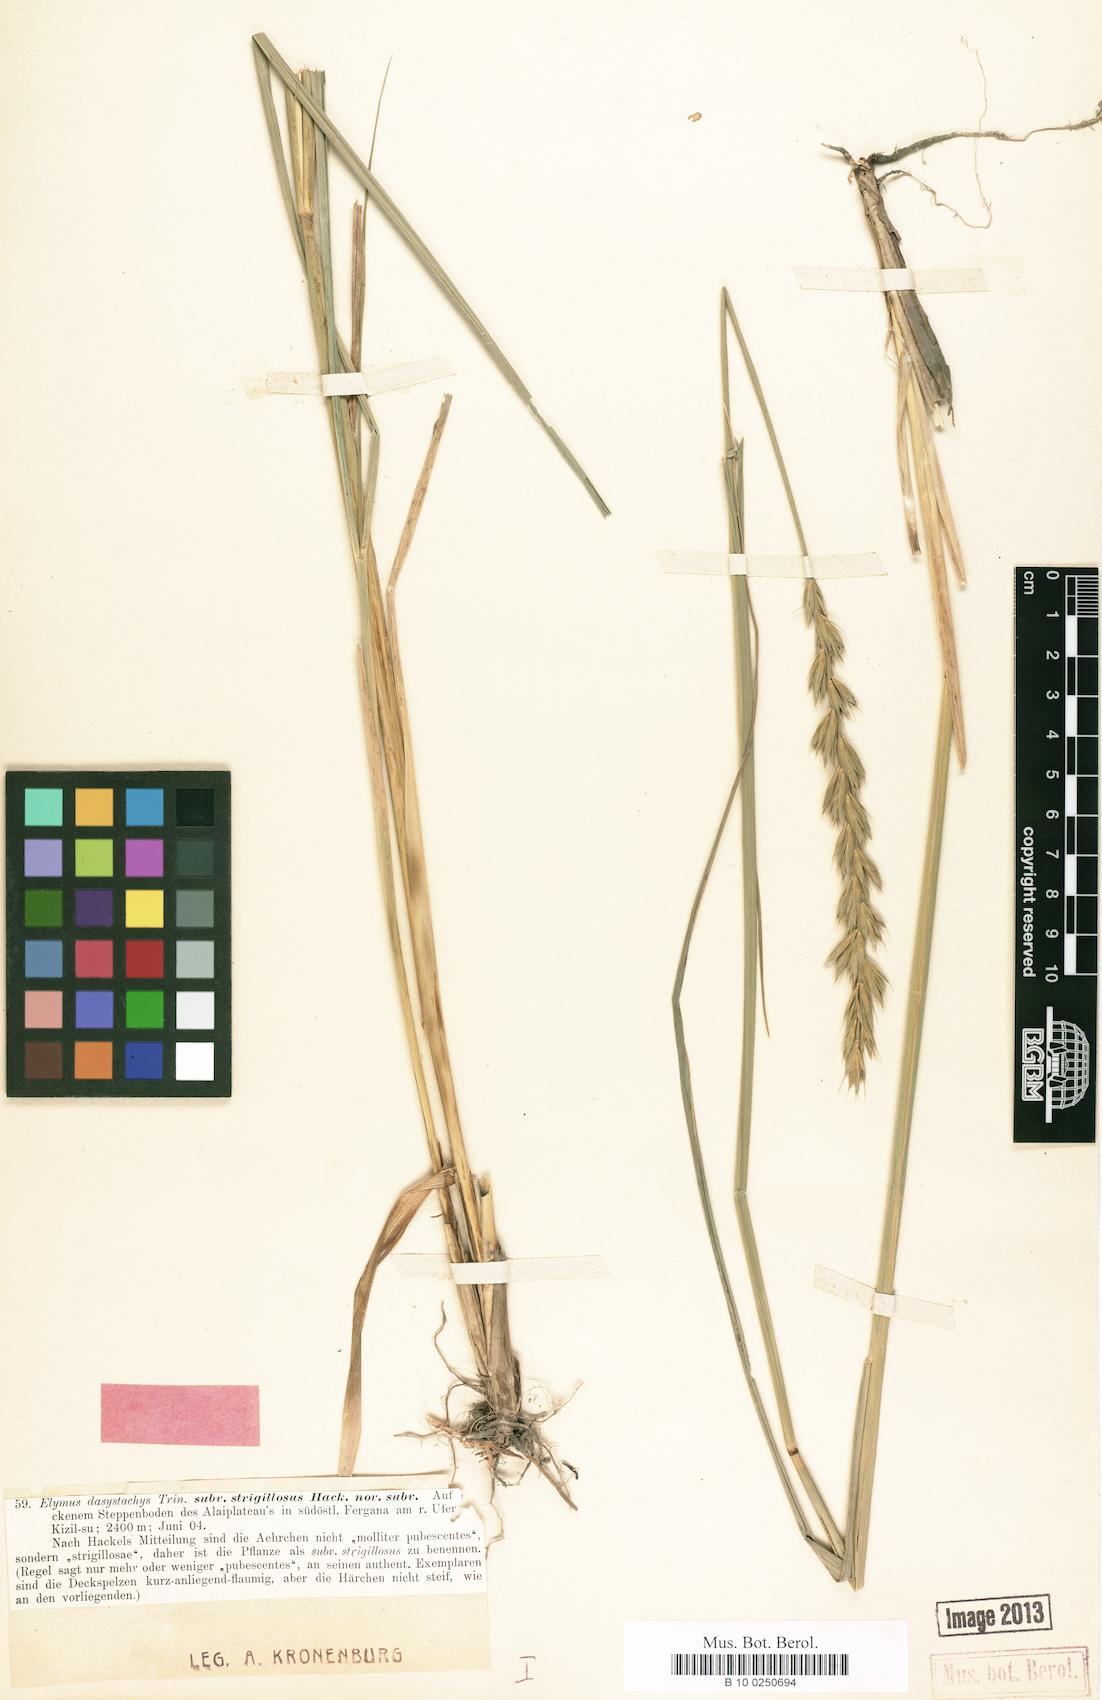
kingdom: Plantae
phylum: Tracheophyta
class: Liliopsida
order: Poales
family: Poaceae
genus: Leymus
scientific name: Leymus secalinus
